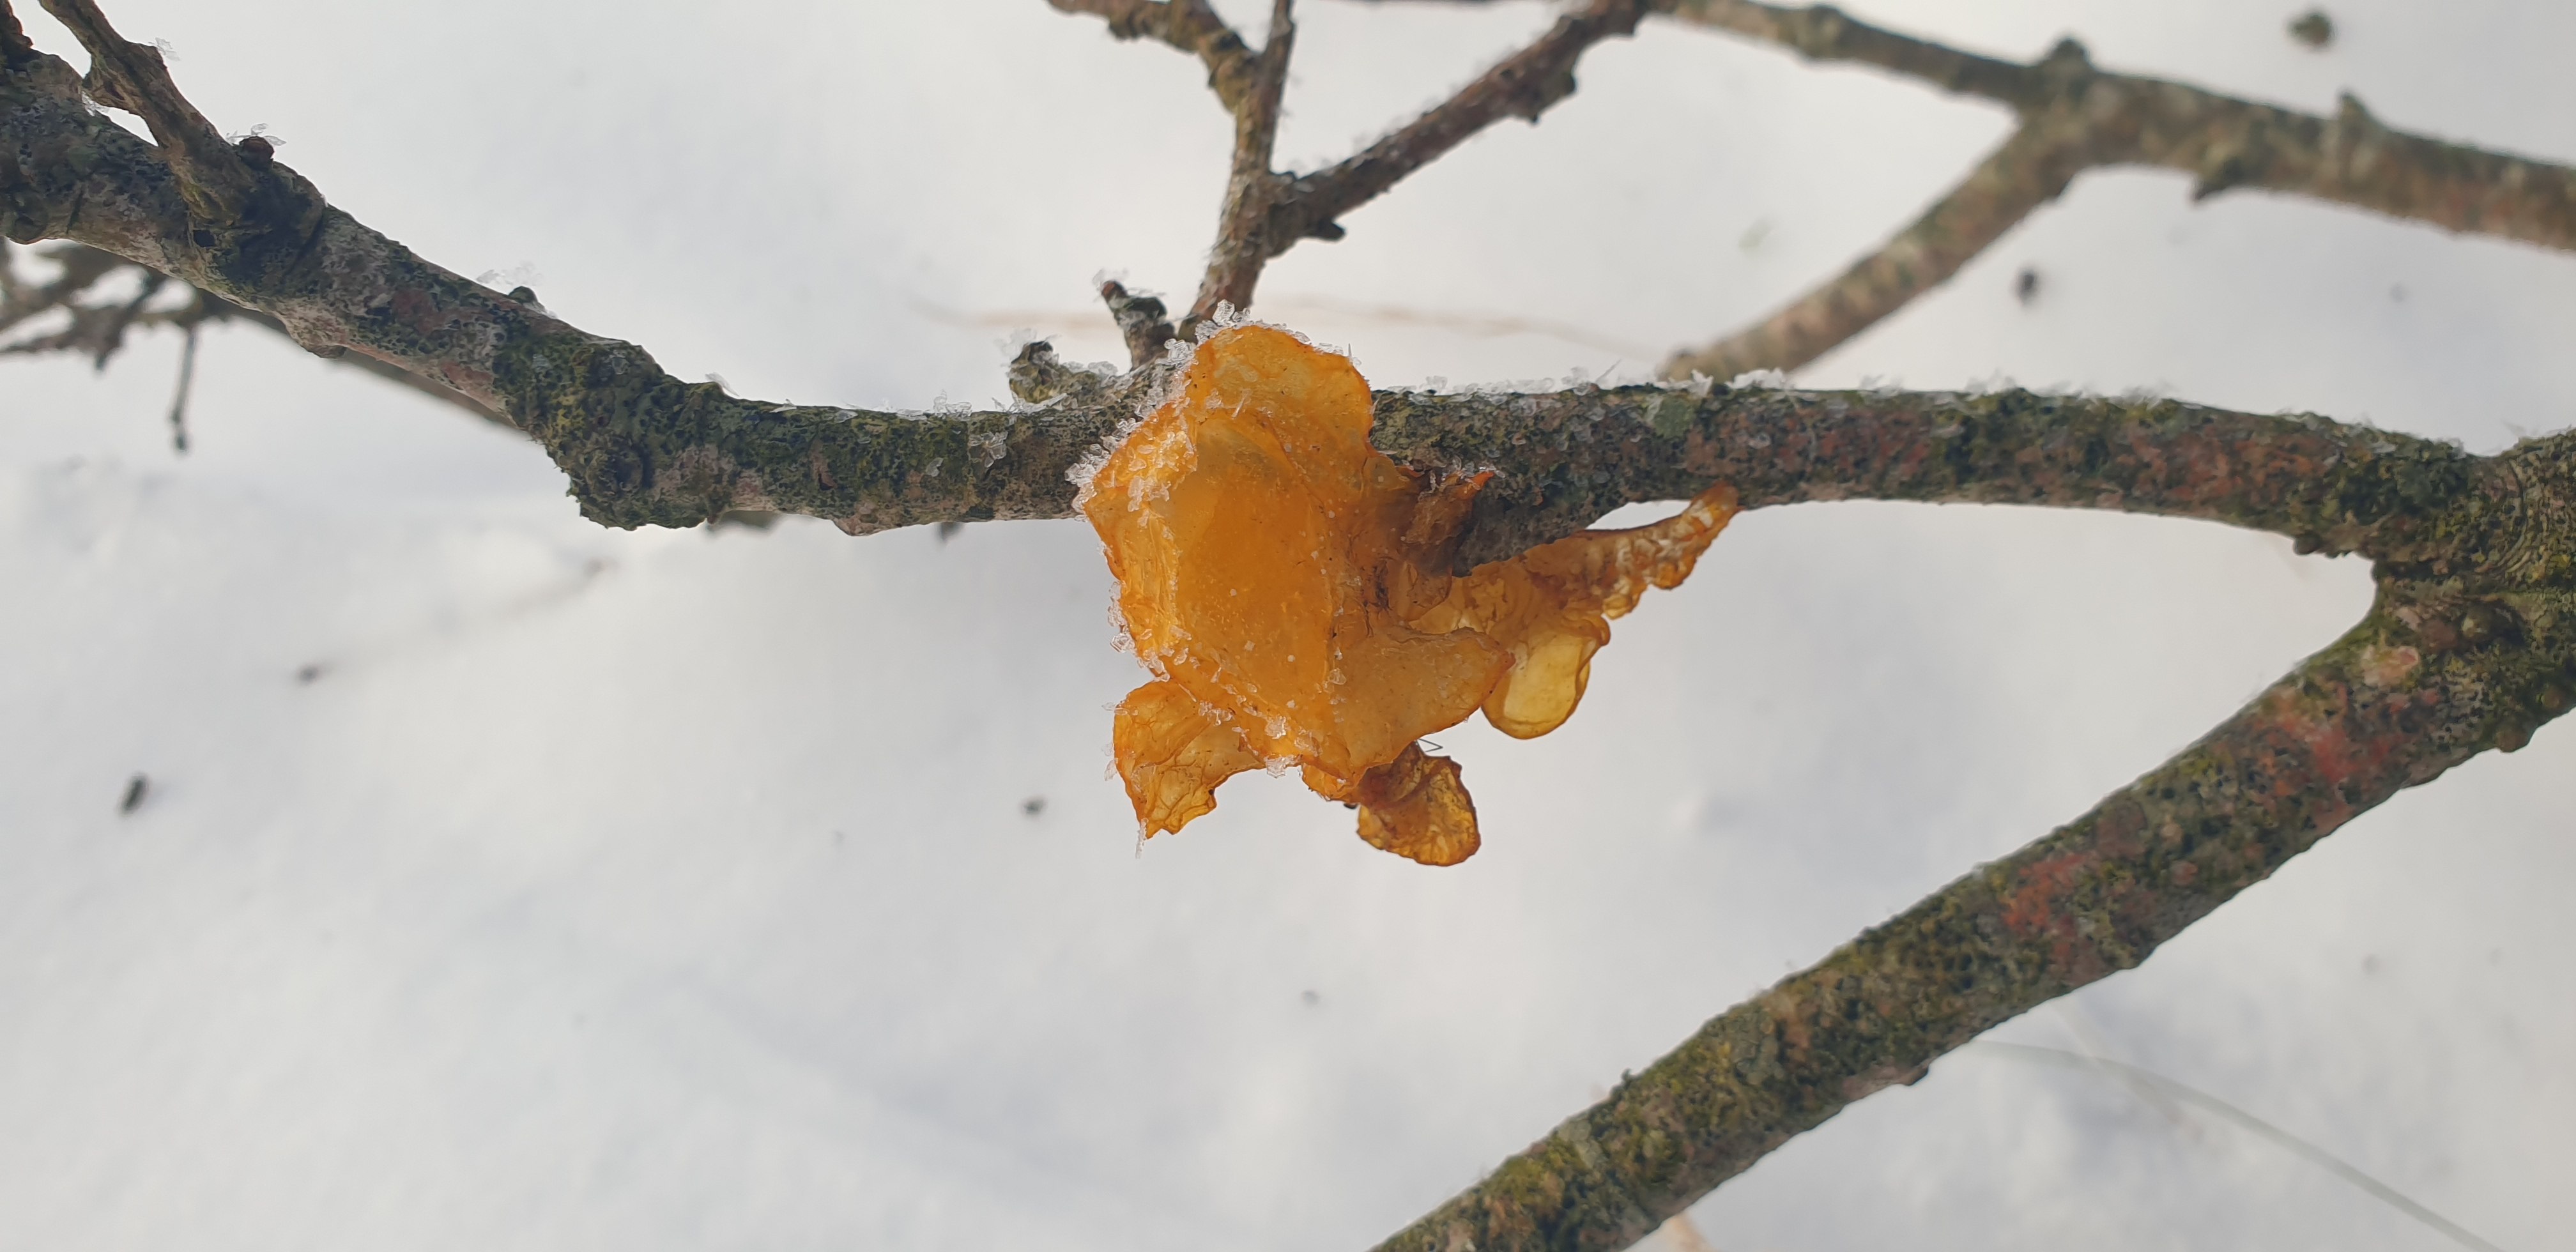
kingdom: Fungi
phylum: Basidiomycota
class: Tremellomycetes
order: Tremellales
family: Tremellaceae
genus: Tremella
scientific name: Tremella mesenterica
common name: gul bævresvamp
